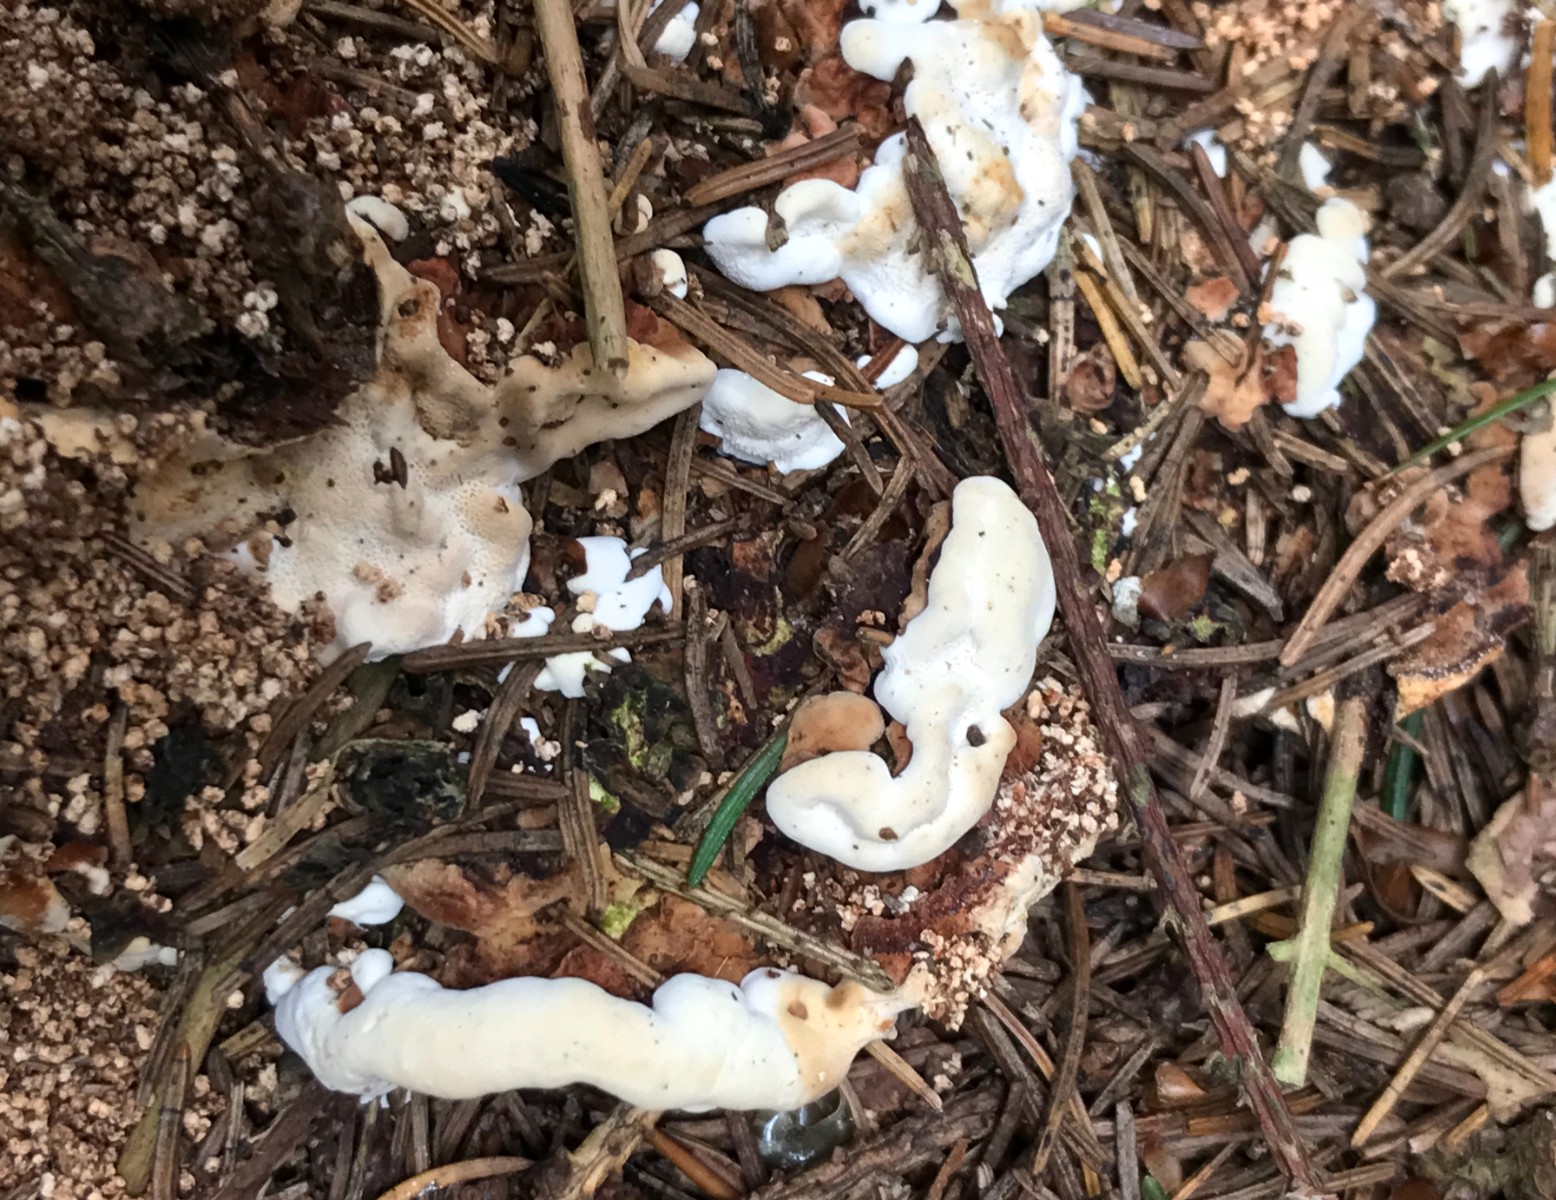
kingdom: Fungi
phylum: Basidiomycota
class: Agaricomycetes
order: Russulales
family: Bondarzewiaceae
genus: Heterobasidion
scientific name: Heterobasidion annosum
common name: almindelig rodfordærver
